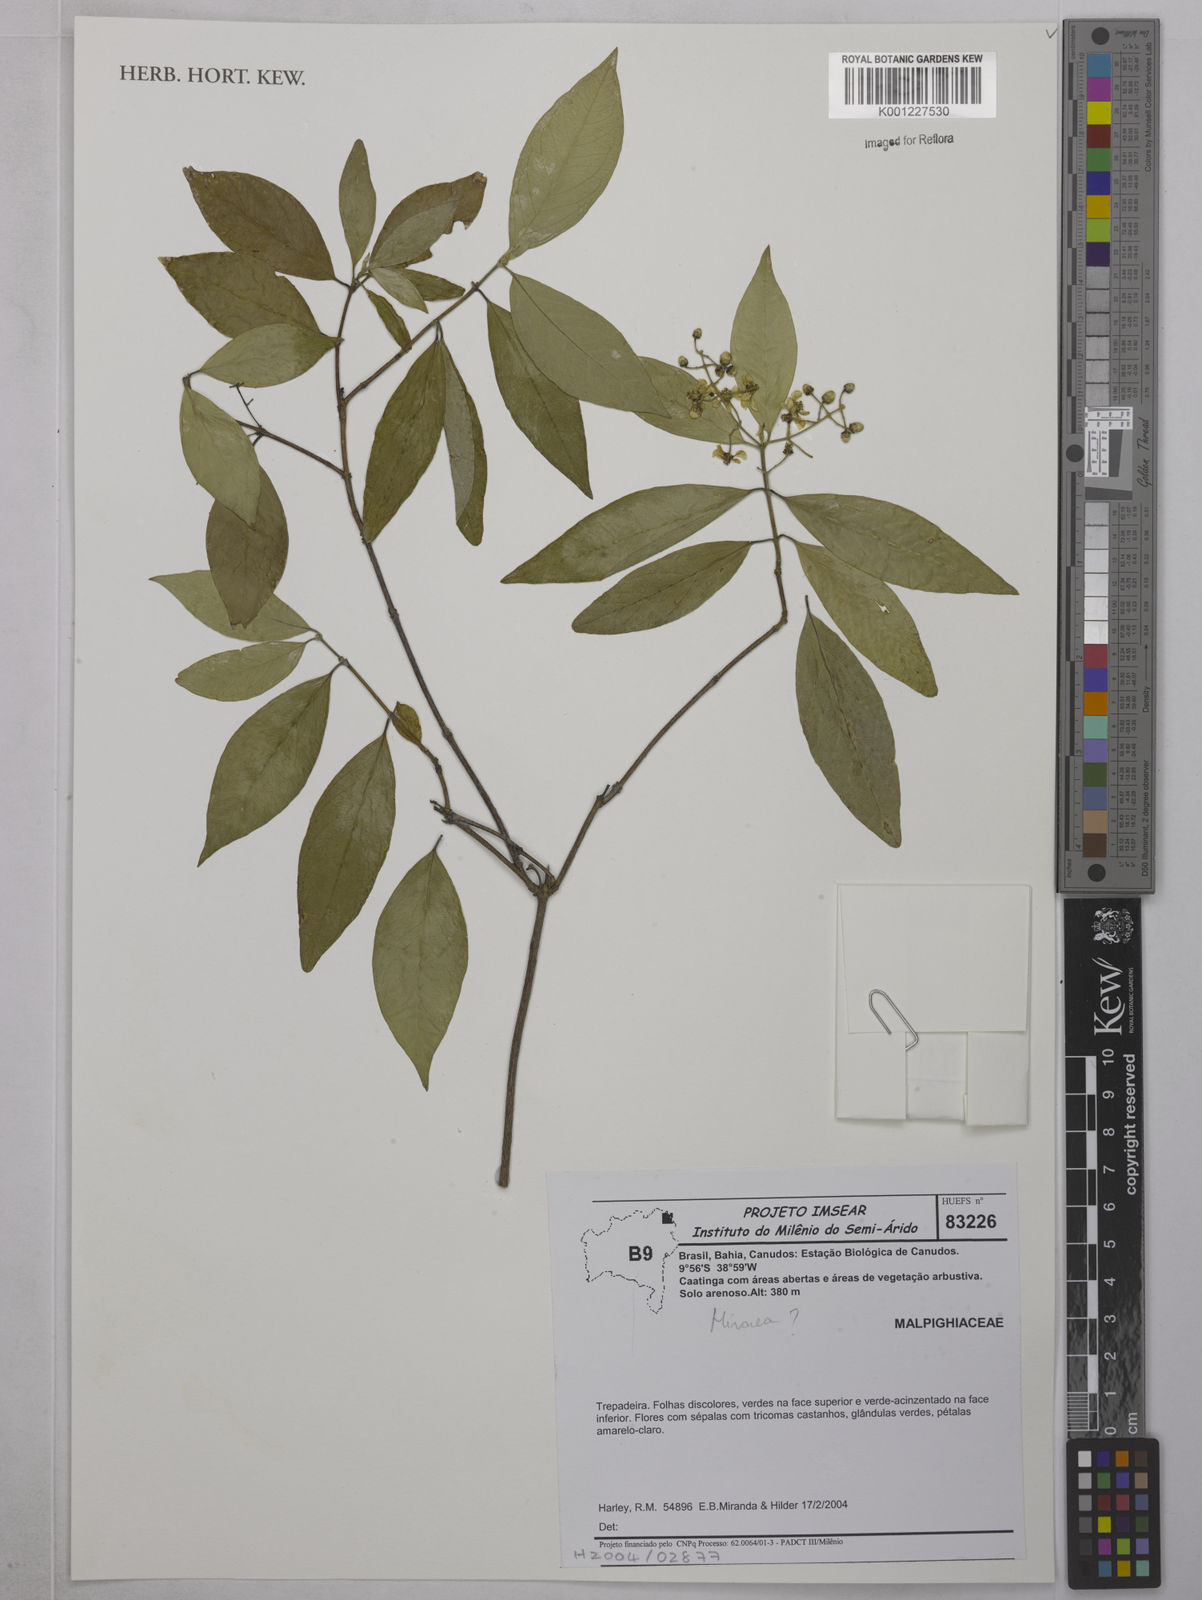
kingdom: Plantae
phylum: Tracheophyta
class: Magnoliopsida
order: Malpighiales
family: Malpighiaceae
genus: Hiraea
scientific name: Hiraea
